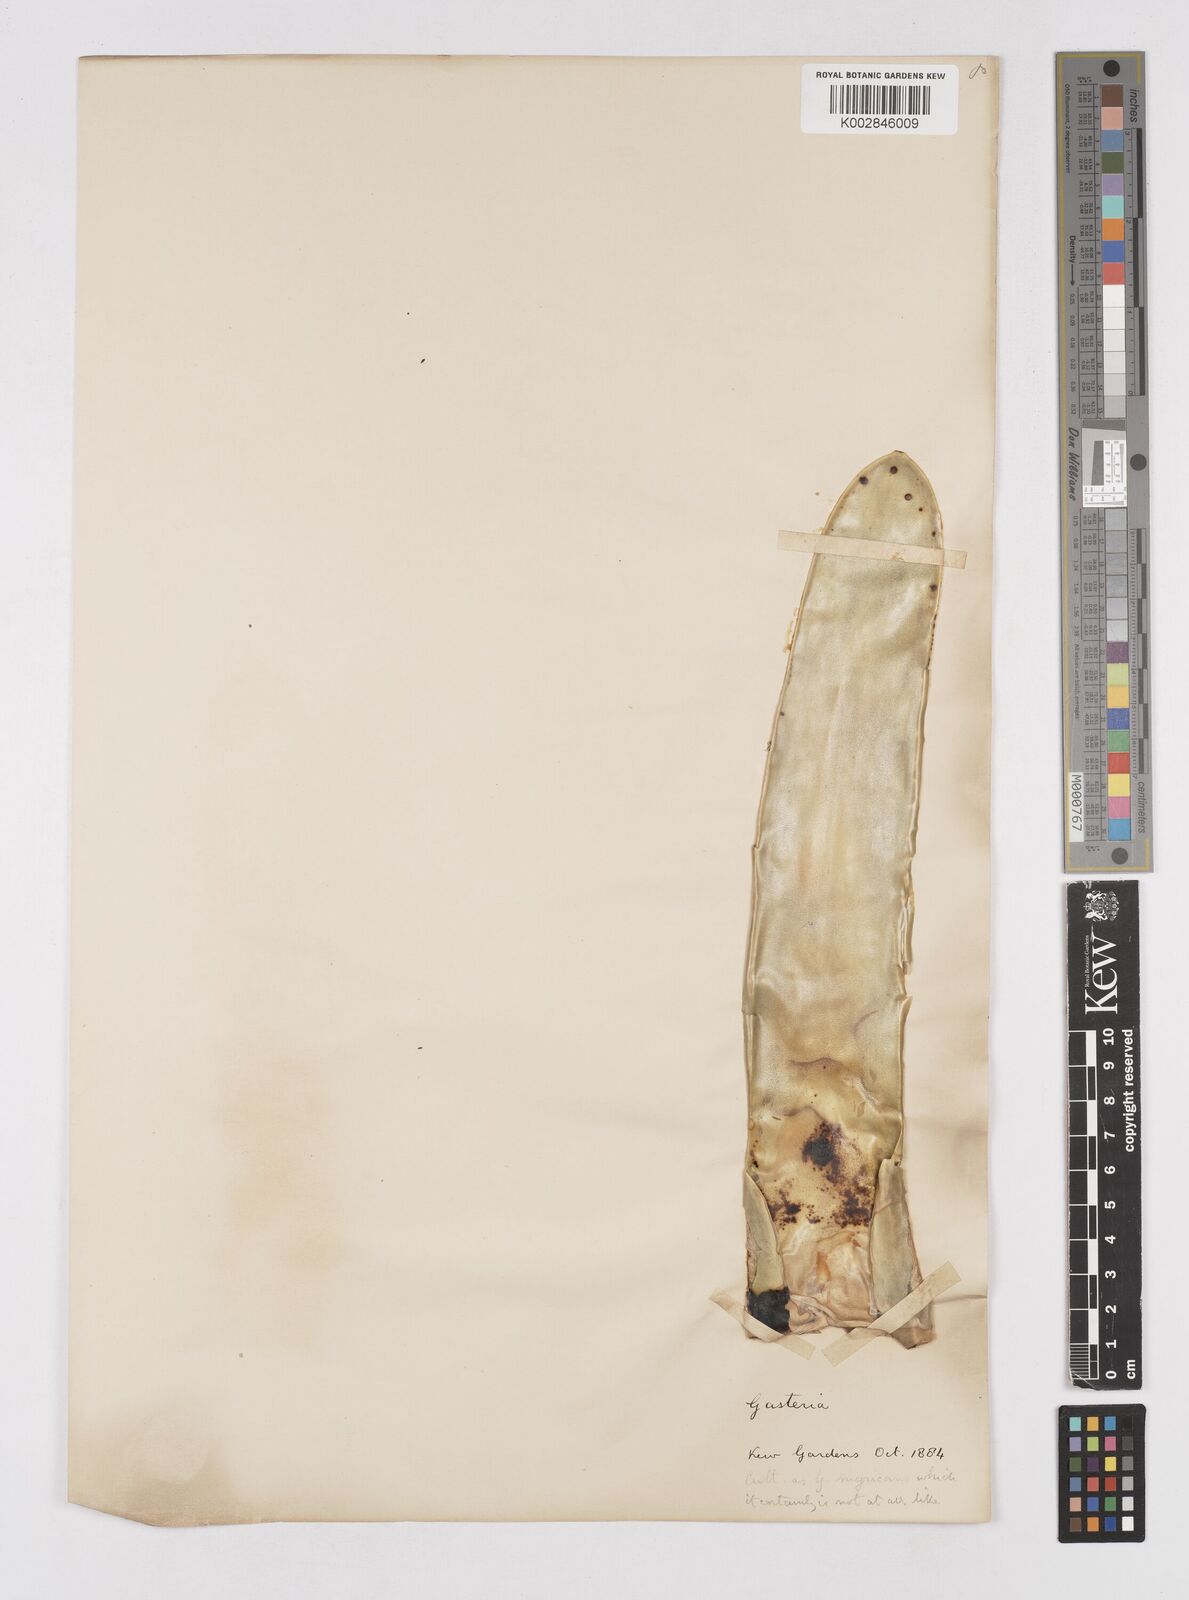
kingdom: Plantae
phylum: Tracheophyta
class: Liliopsida
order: Asparagales
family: Asphodelaceae
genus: Gasteria
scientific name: Gasteria obliqua
